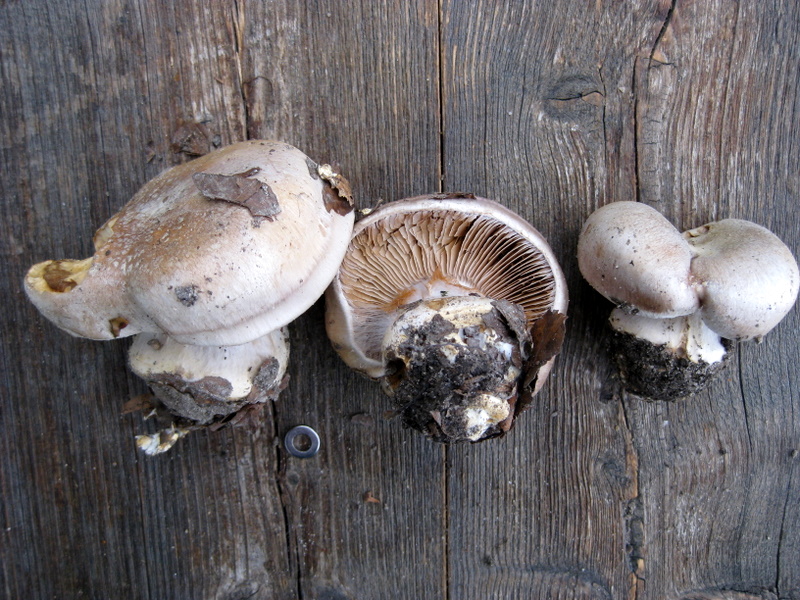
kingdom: Fungi
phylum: Basidiomycota
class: Agaricomycetes
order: Agaricales
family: Cortinariaceae
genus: Cortinarius
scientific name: Cortinarius foetens
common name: stribet slørhat
